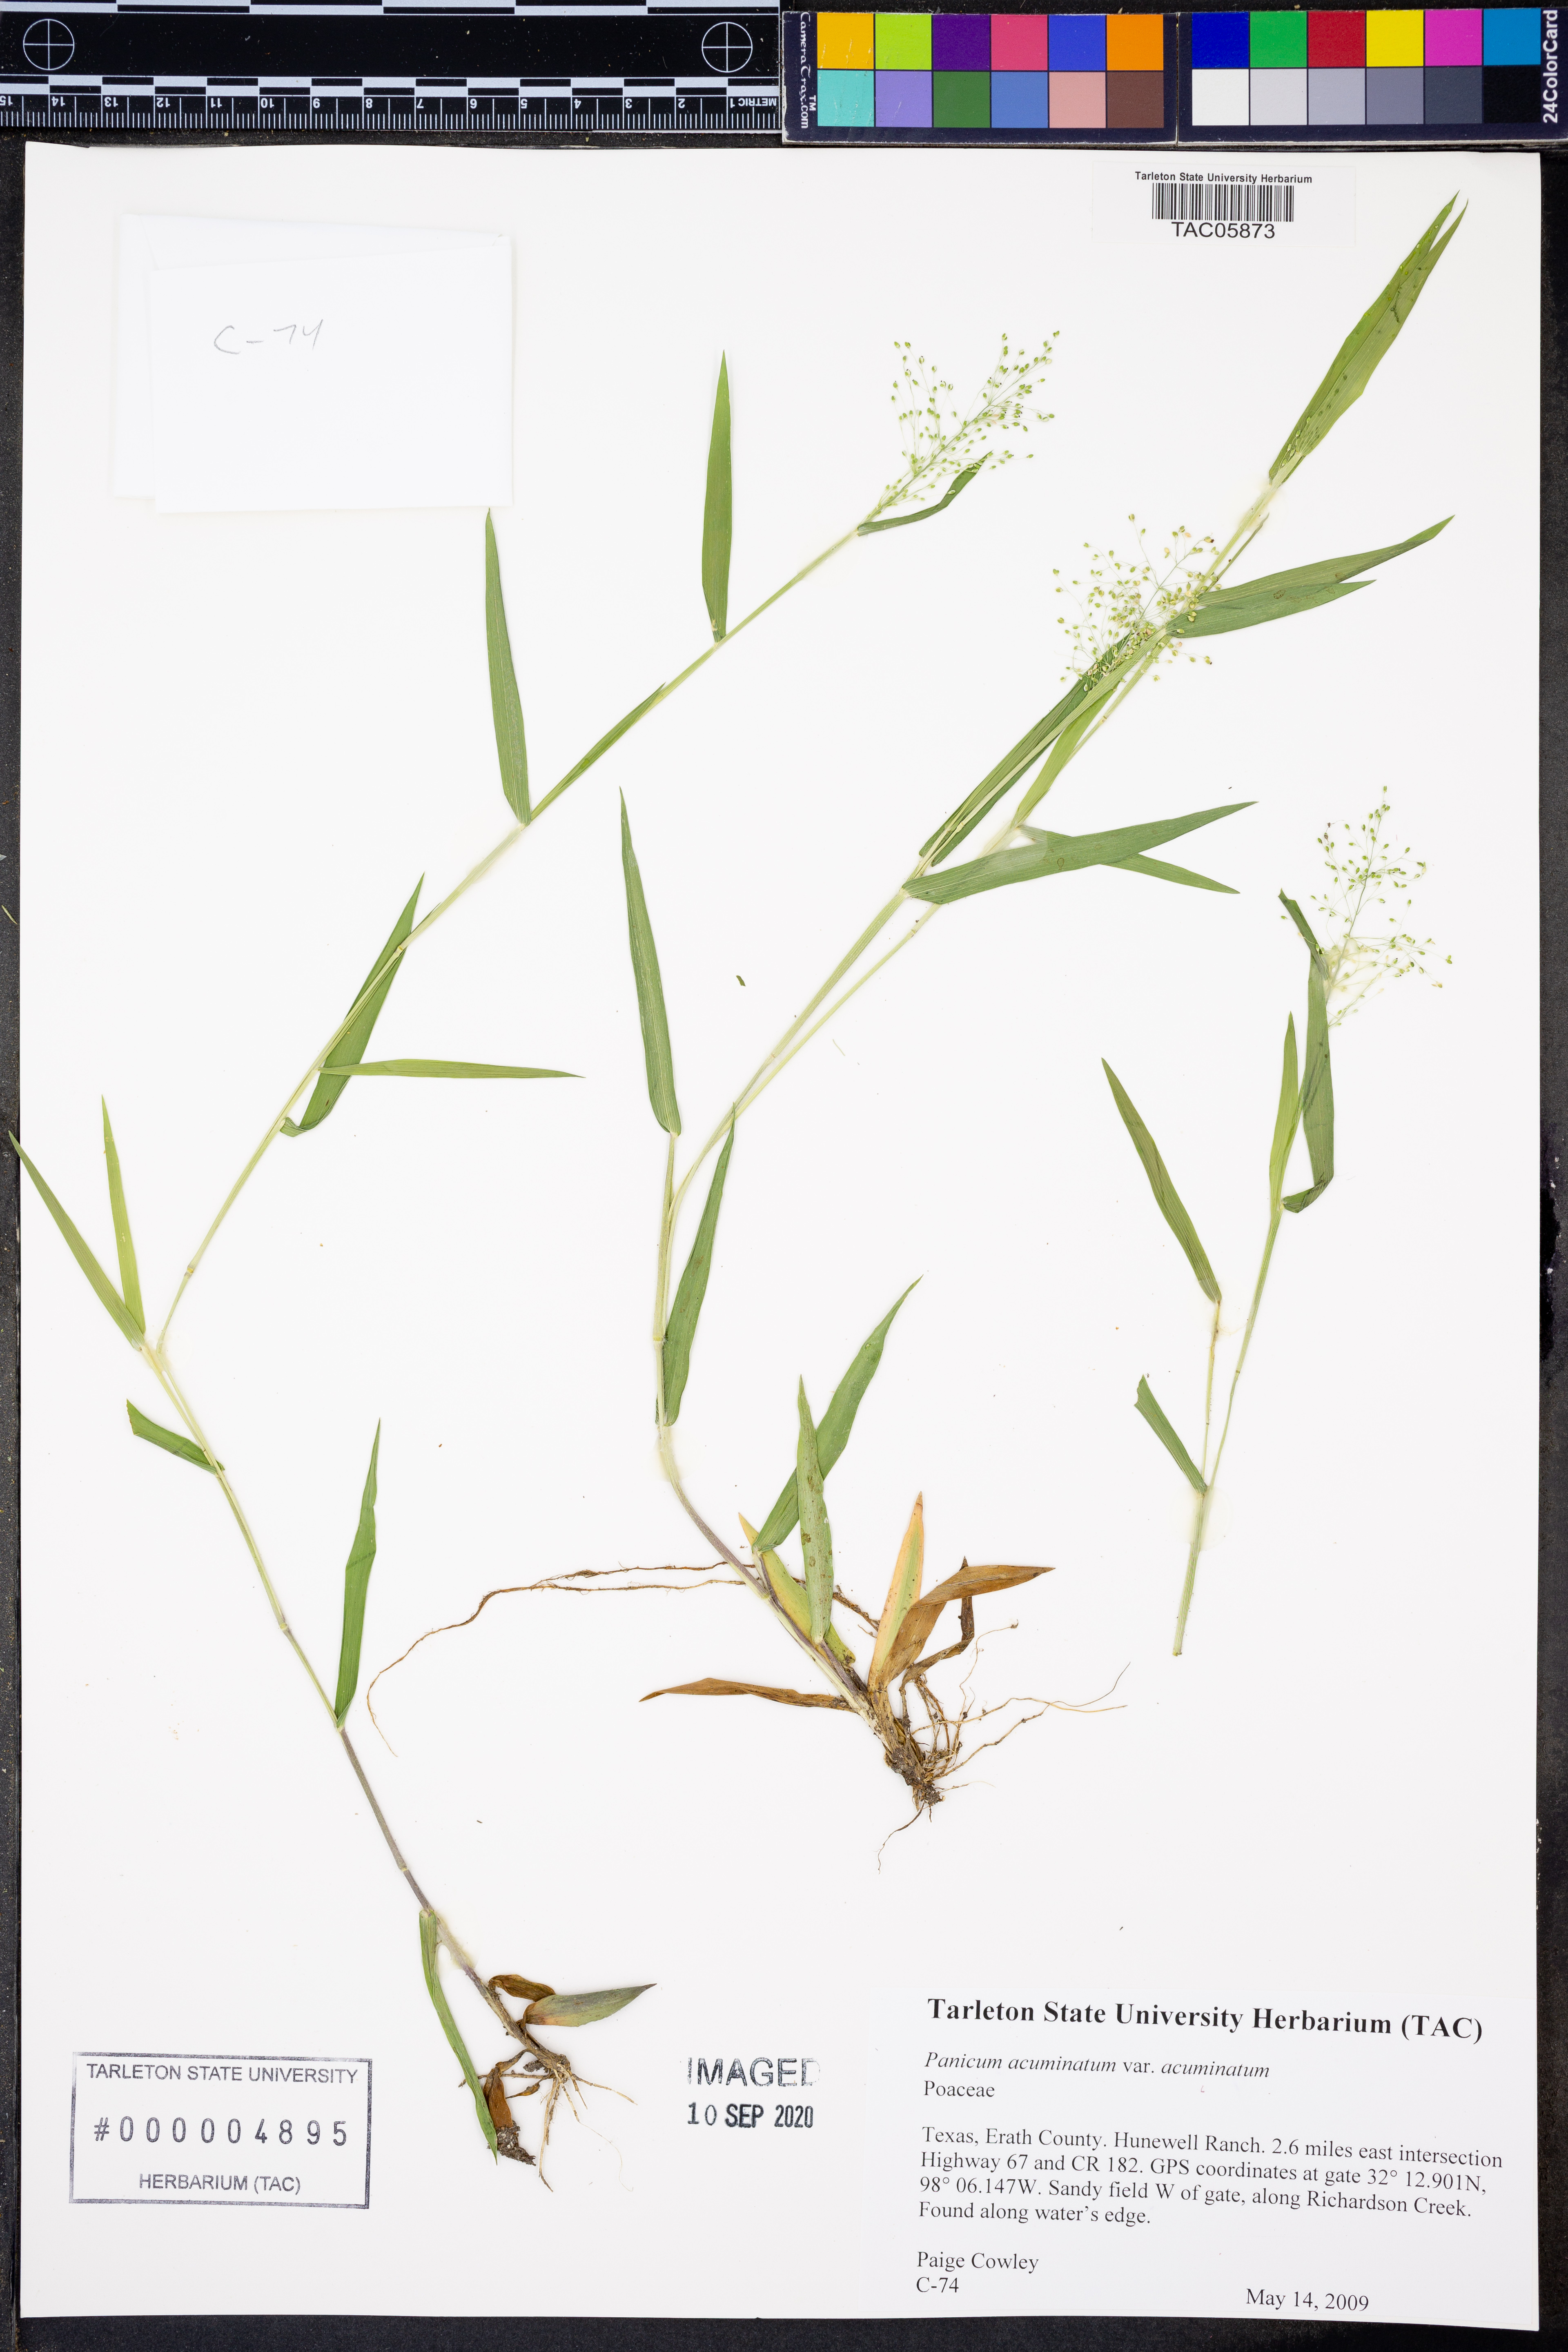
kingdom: Plantae
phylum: Tracheophyta
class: Liliopsida
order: Poales
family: Poaceae
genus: Dichanthelium
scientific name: Dichanthelium acuminatum
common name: Hairy panic grass
